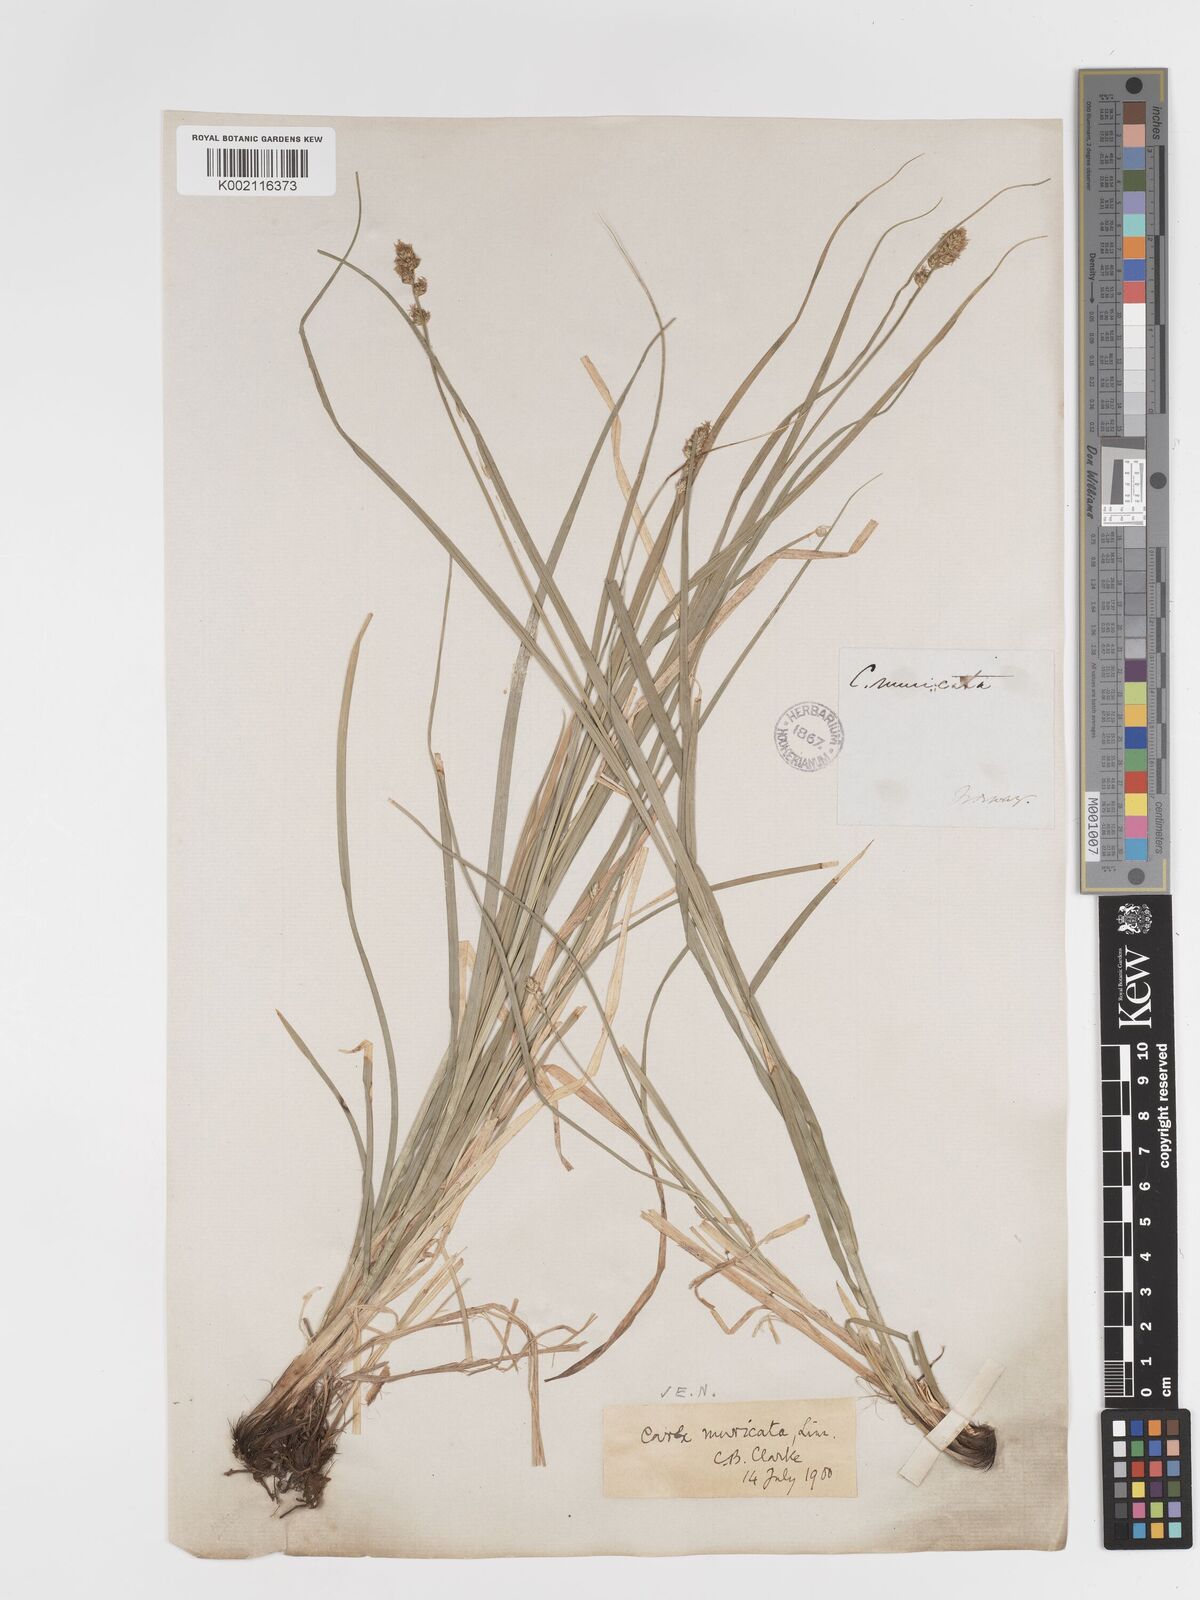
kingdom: Plantae
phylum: Tracheophyta
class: Liliopsida
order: Poales
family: Cyperaceae
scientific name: Cyperaceae
